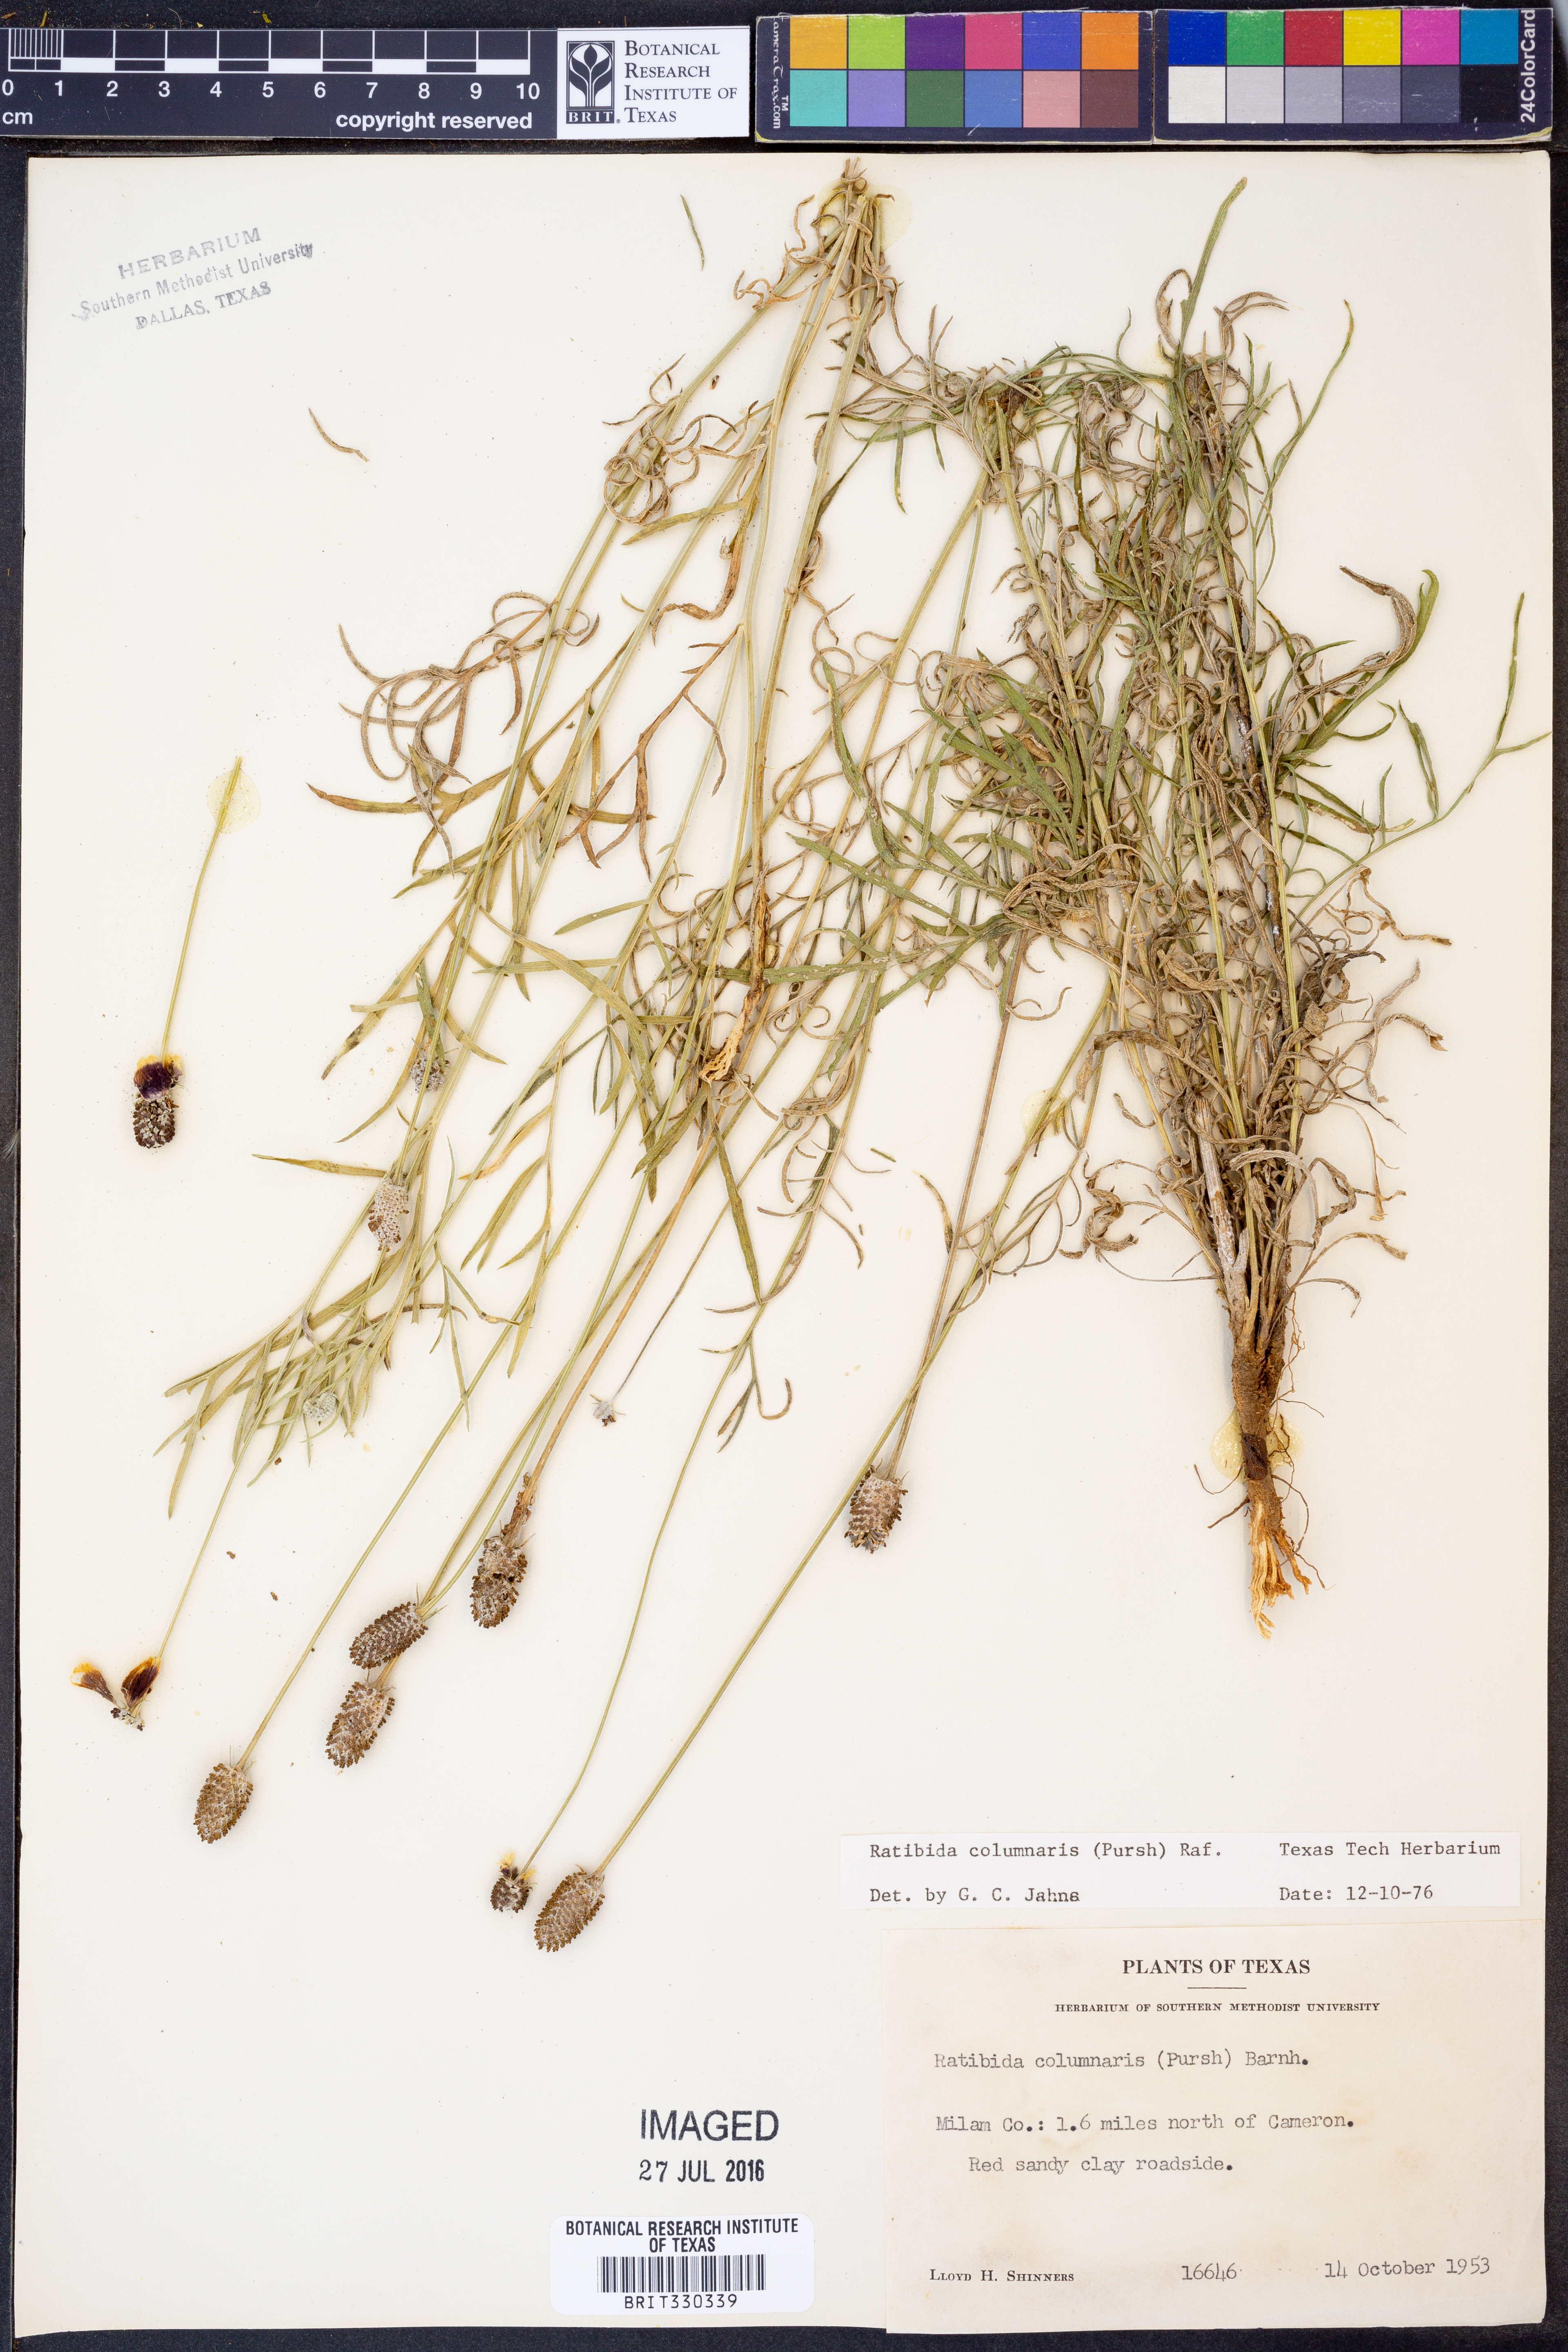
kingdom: Plantae
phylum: Tracheophyta
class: Magnoliopsida
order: Asterales
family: Asteraceae
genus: Ratibida
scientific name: Ratibida columnifera
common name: Prairie coneflower
